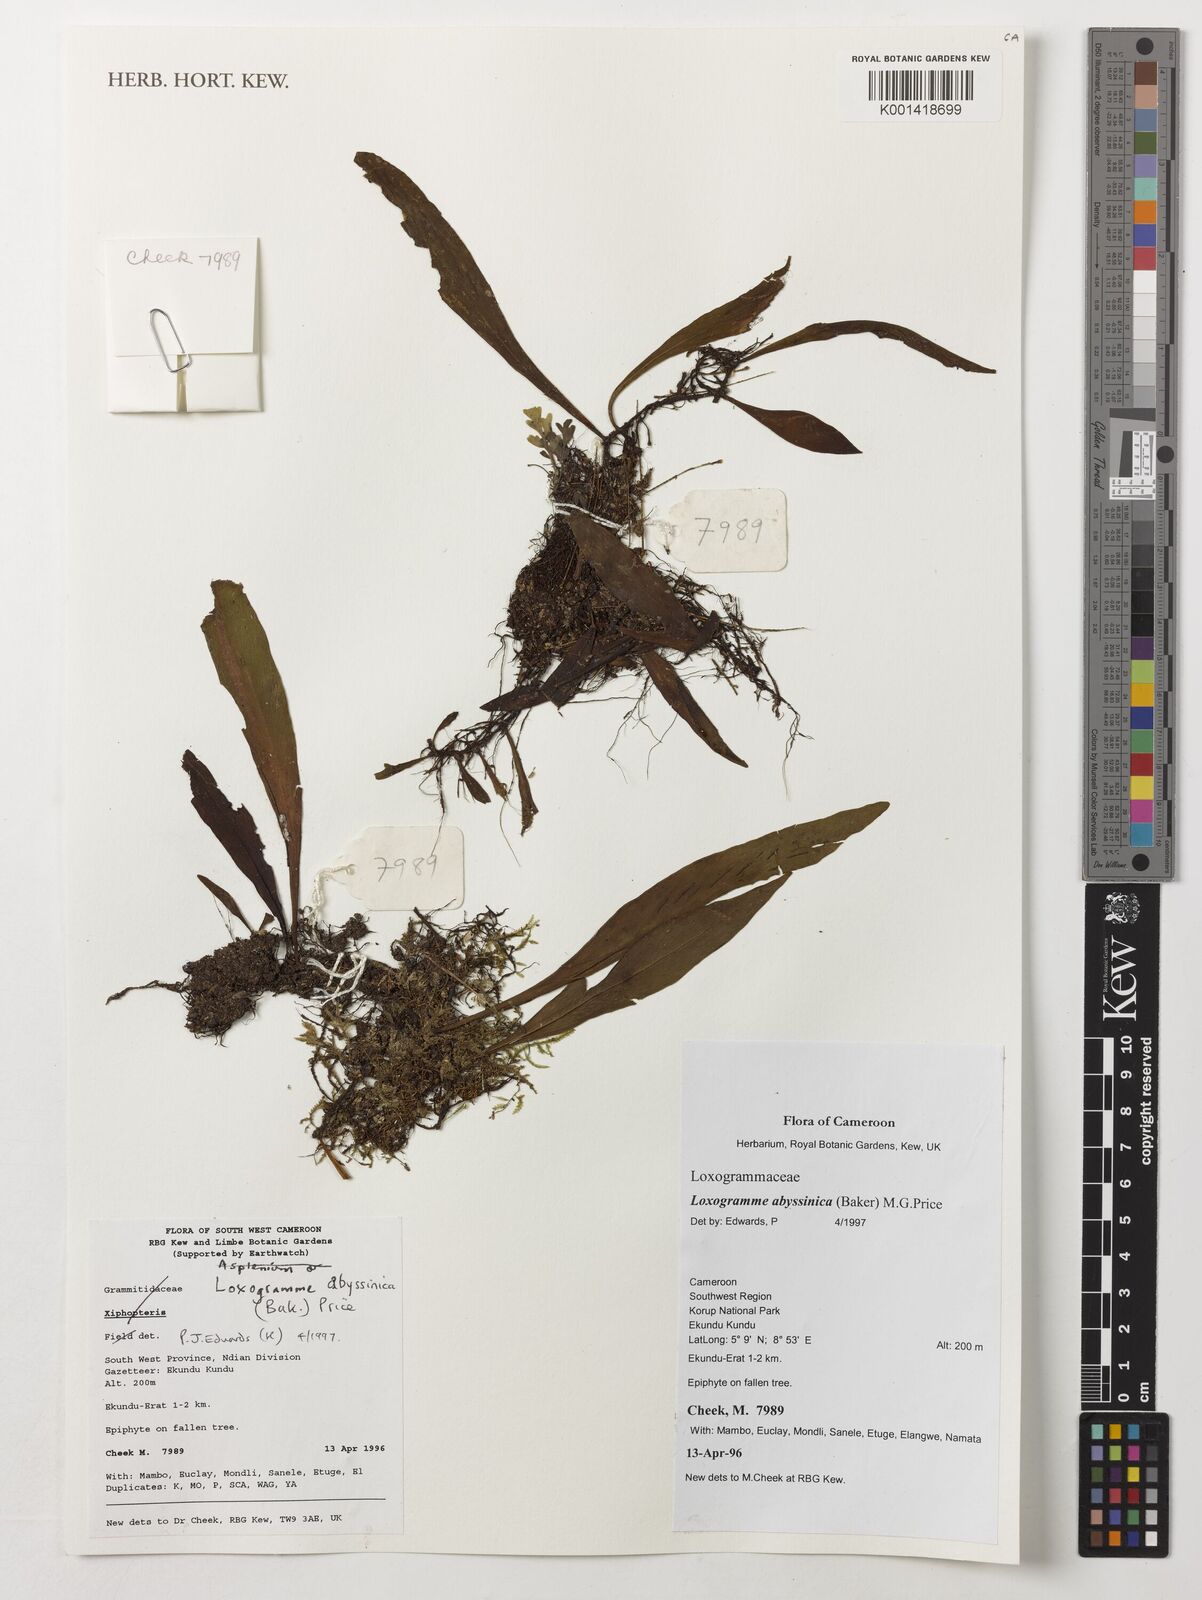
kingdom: Plantae
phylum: Tracheophyta
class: Polypodiopsida
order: Polypodiales
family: Polypodiaceae
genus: Loxogramme
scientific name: Loxogramme abyssinica
